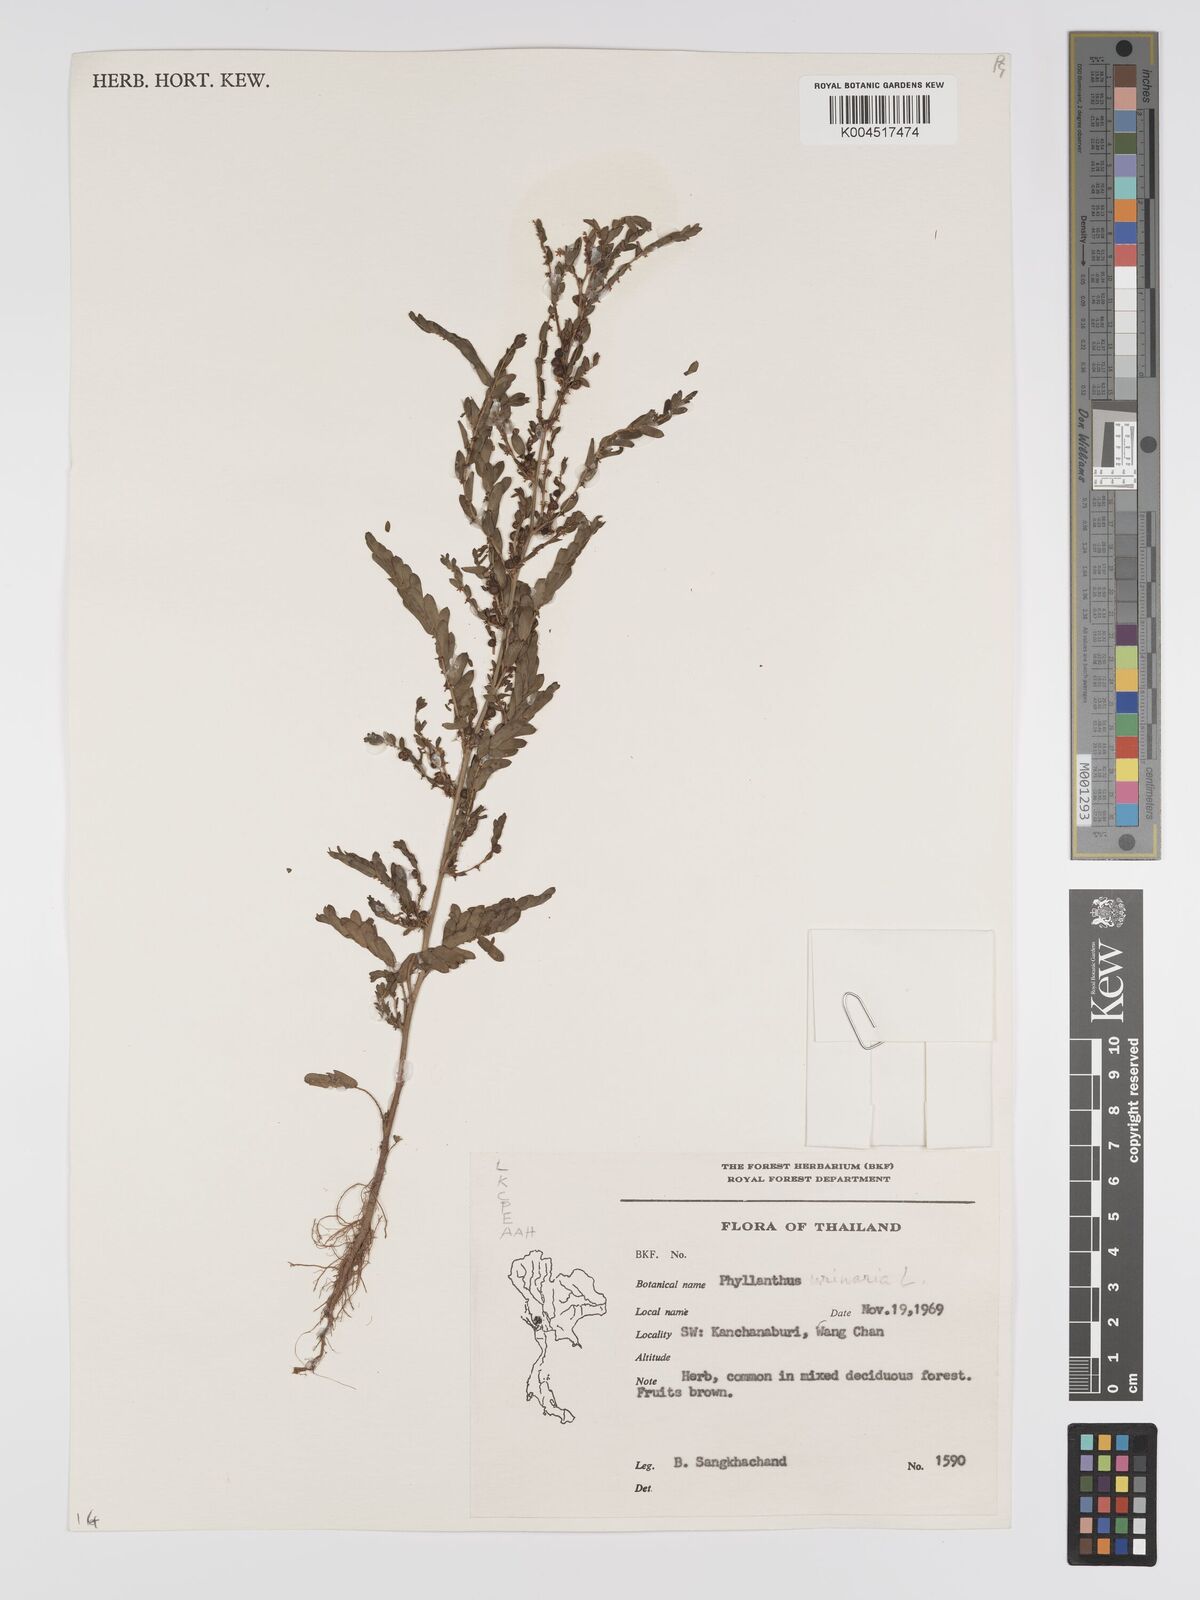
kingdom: Plantae
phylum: Tracheophyta
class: Magnoliopsida
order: Malpighiales
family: Phyllanthaceae
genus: Phyllanthus
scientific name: Phyllanthus urinaria
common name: Chamber bitter
